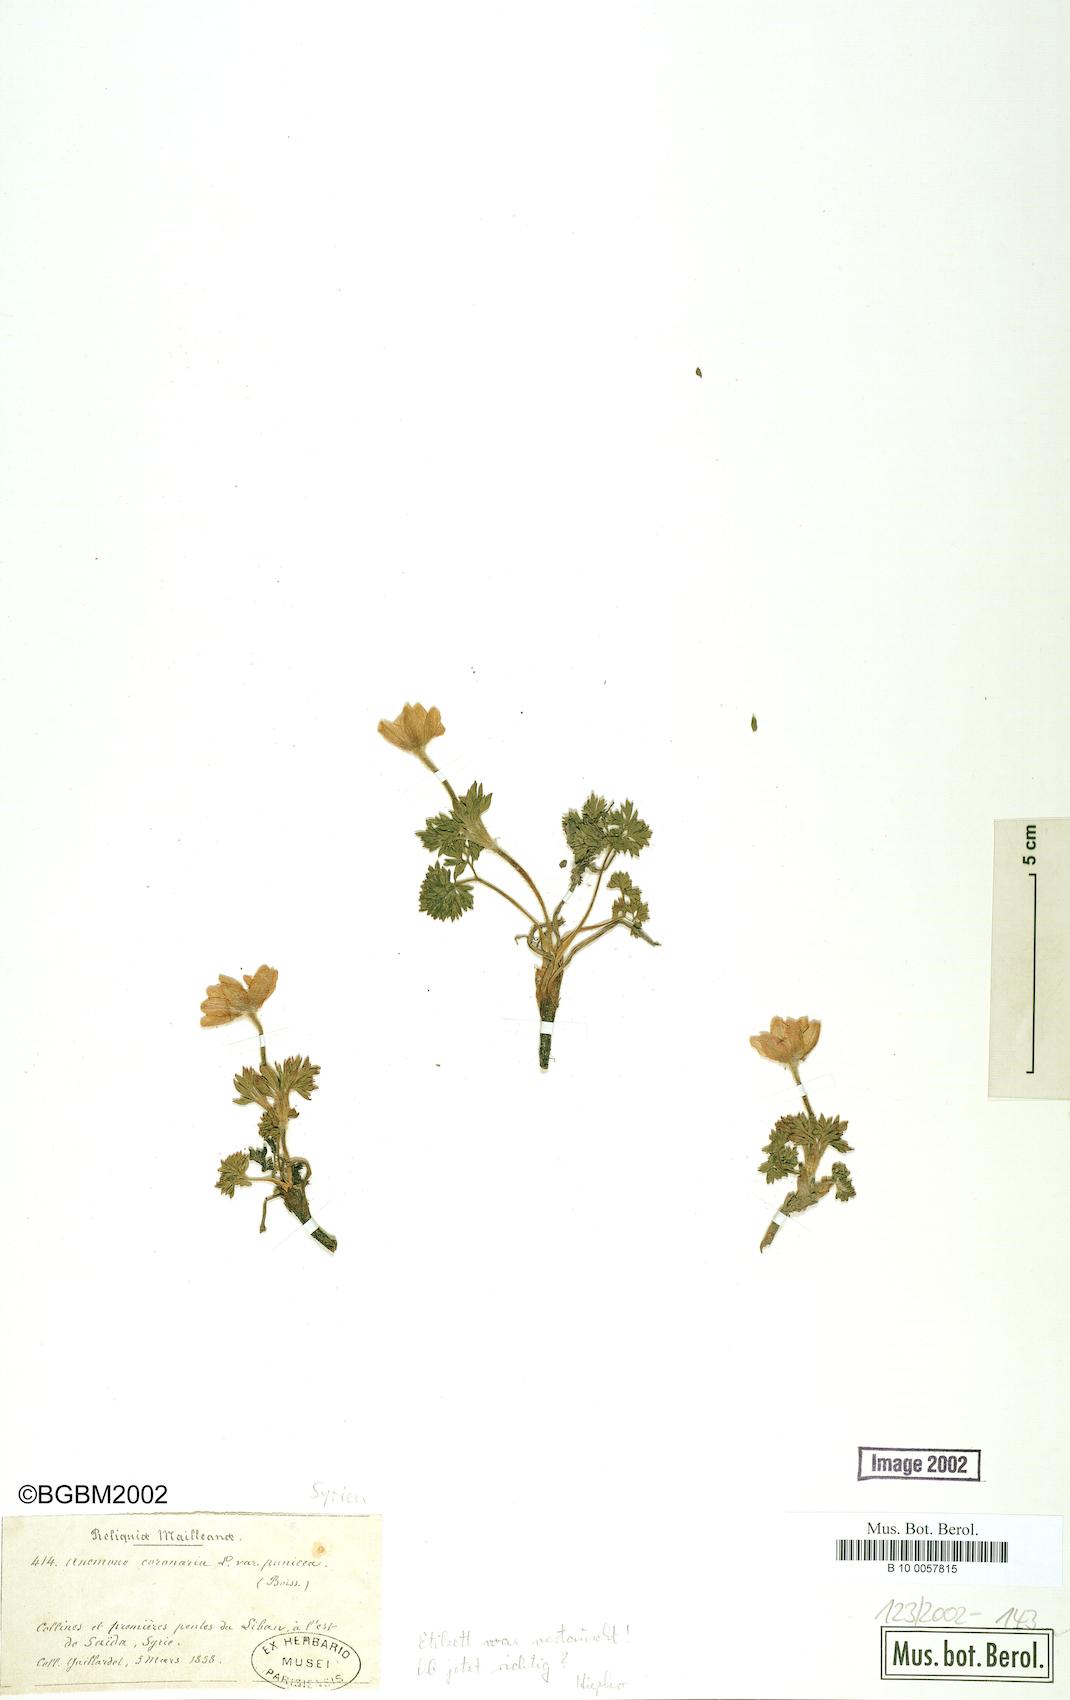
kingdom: Plantae
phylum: Tracheophyta
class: Magnoliopsida
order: Ranunculales
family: Ranunculaceae
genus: Anemone
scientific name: Anemone coronaria
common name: Poppy anemone
